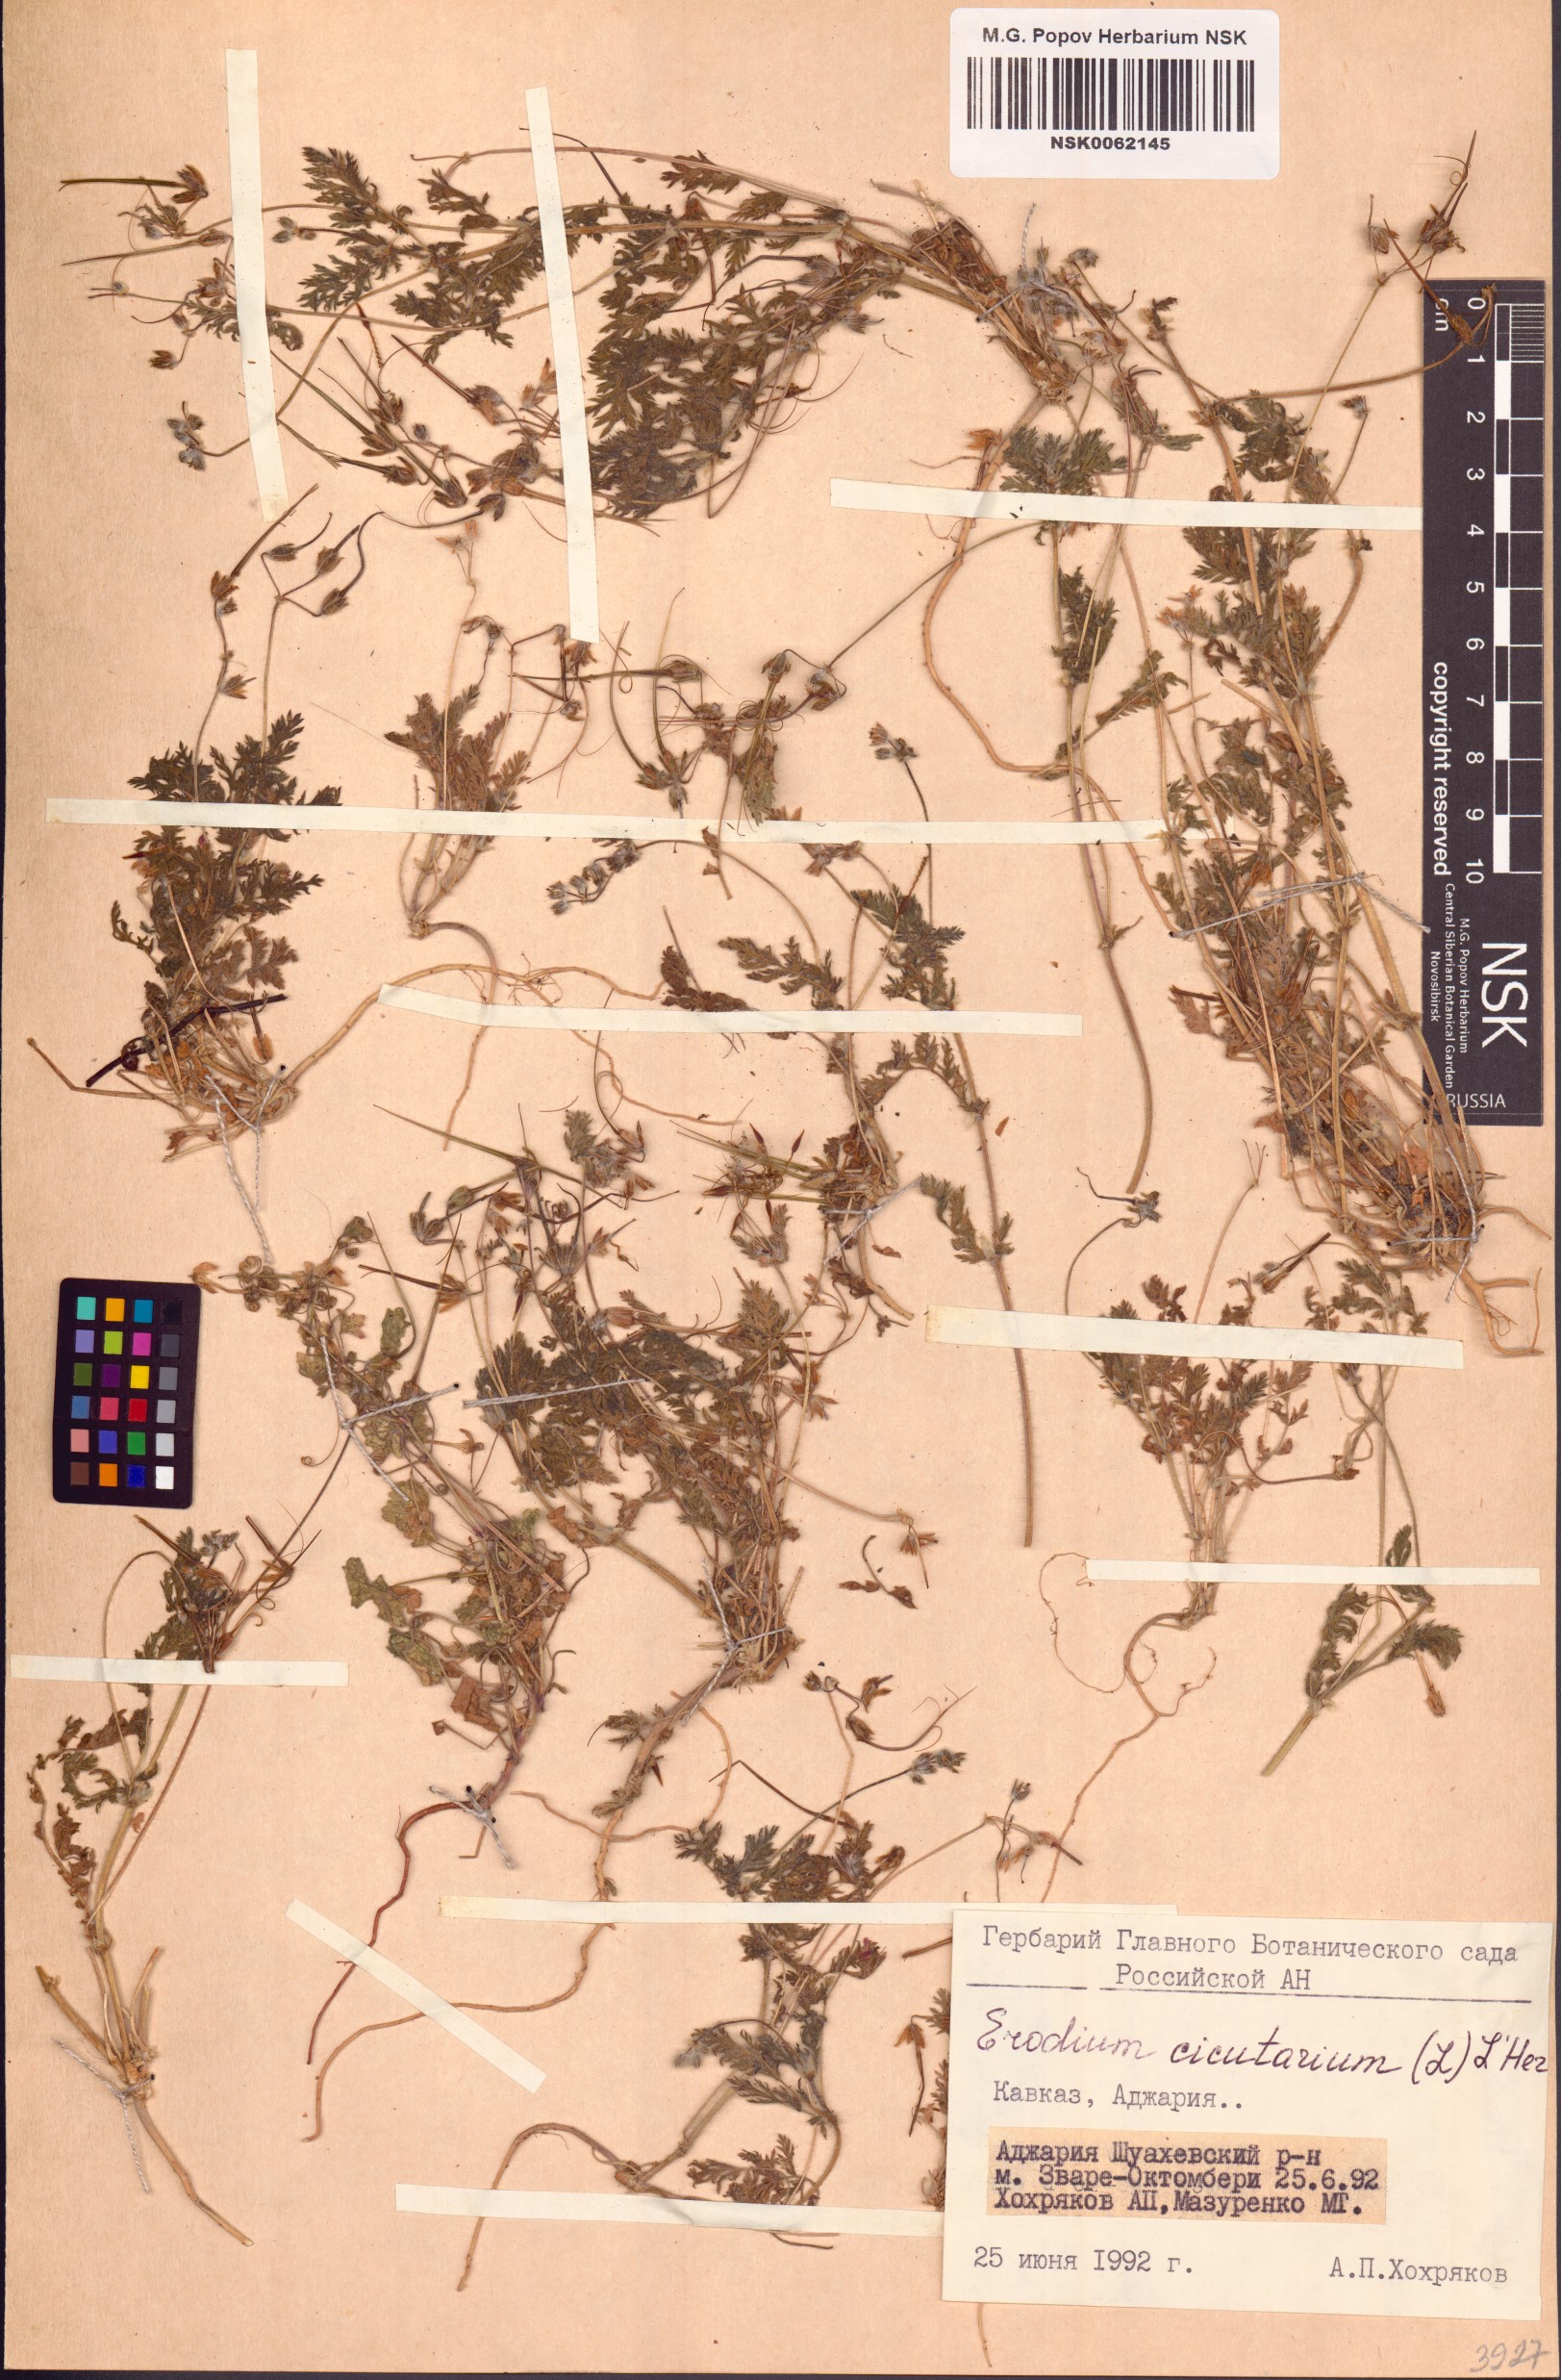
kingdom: Plantae
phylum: Tracheophyta
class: Magnoliopsida
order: Geraniales
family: Geraniaceae
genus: Erodium
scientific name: Erodium cicutarium
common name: Common stork's-bill
